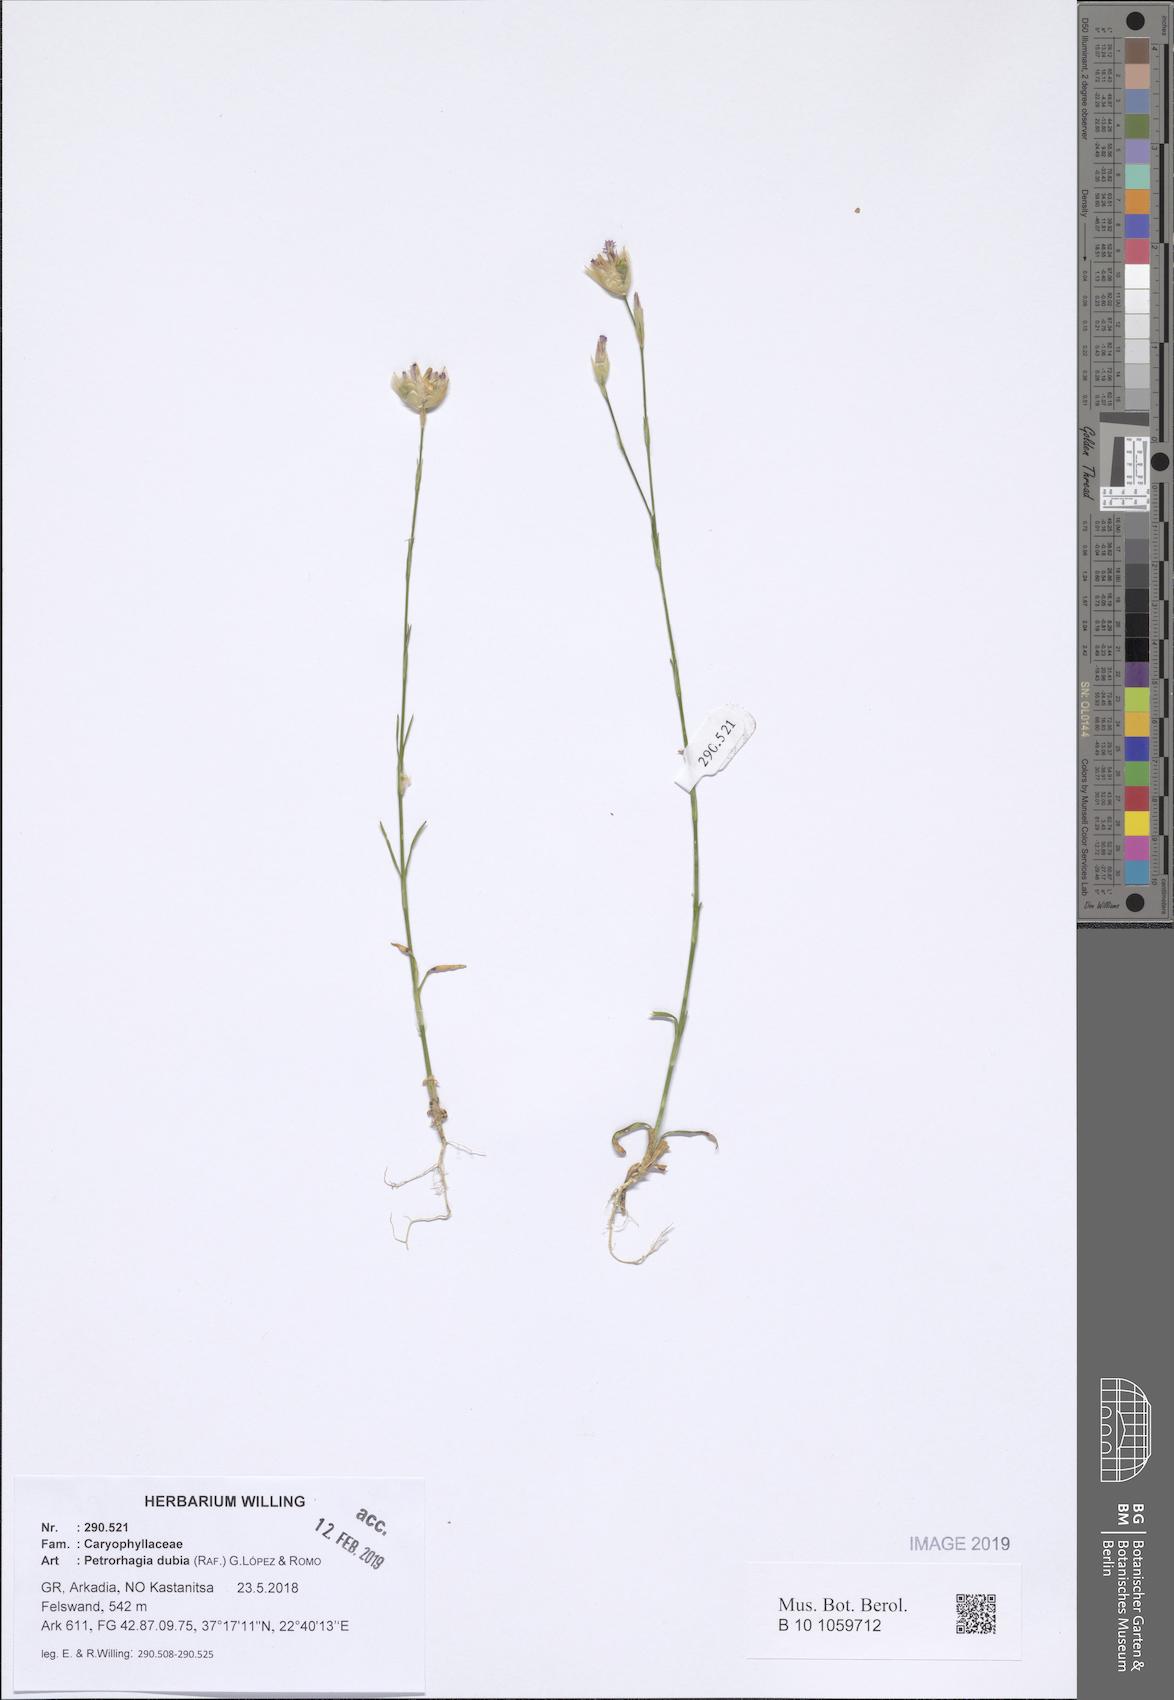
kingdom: Plantae
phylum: Tracheophyta
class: Magnoliopsida
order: Caryophyllales
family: Caryophyllaceae
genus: Petrorhagia
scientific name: Petrorhagia dubia
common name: Hairypink
